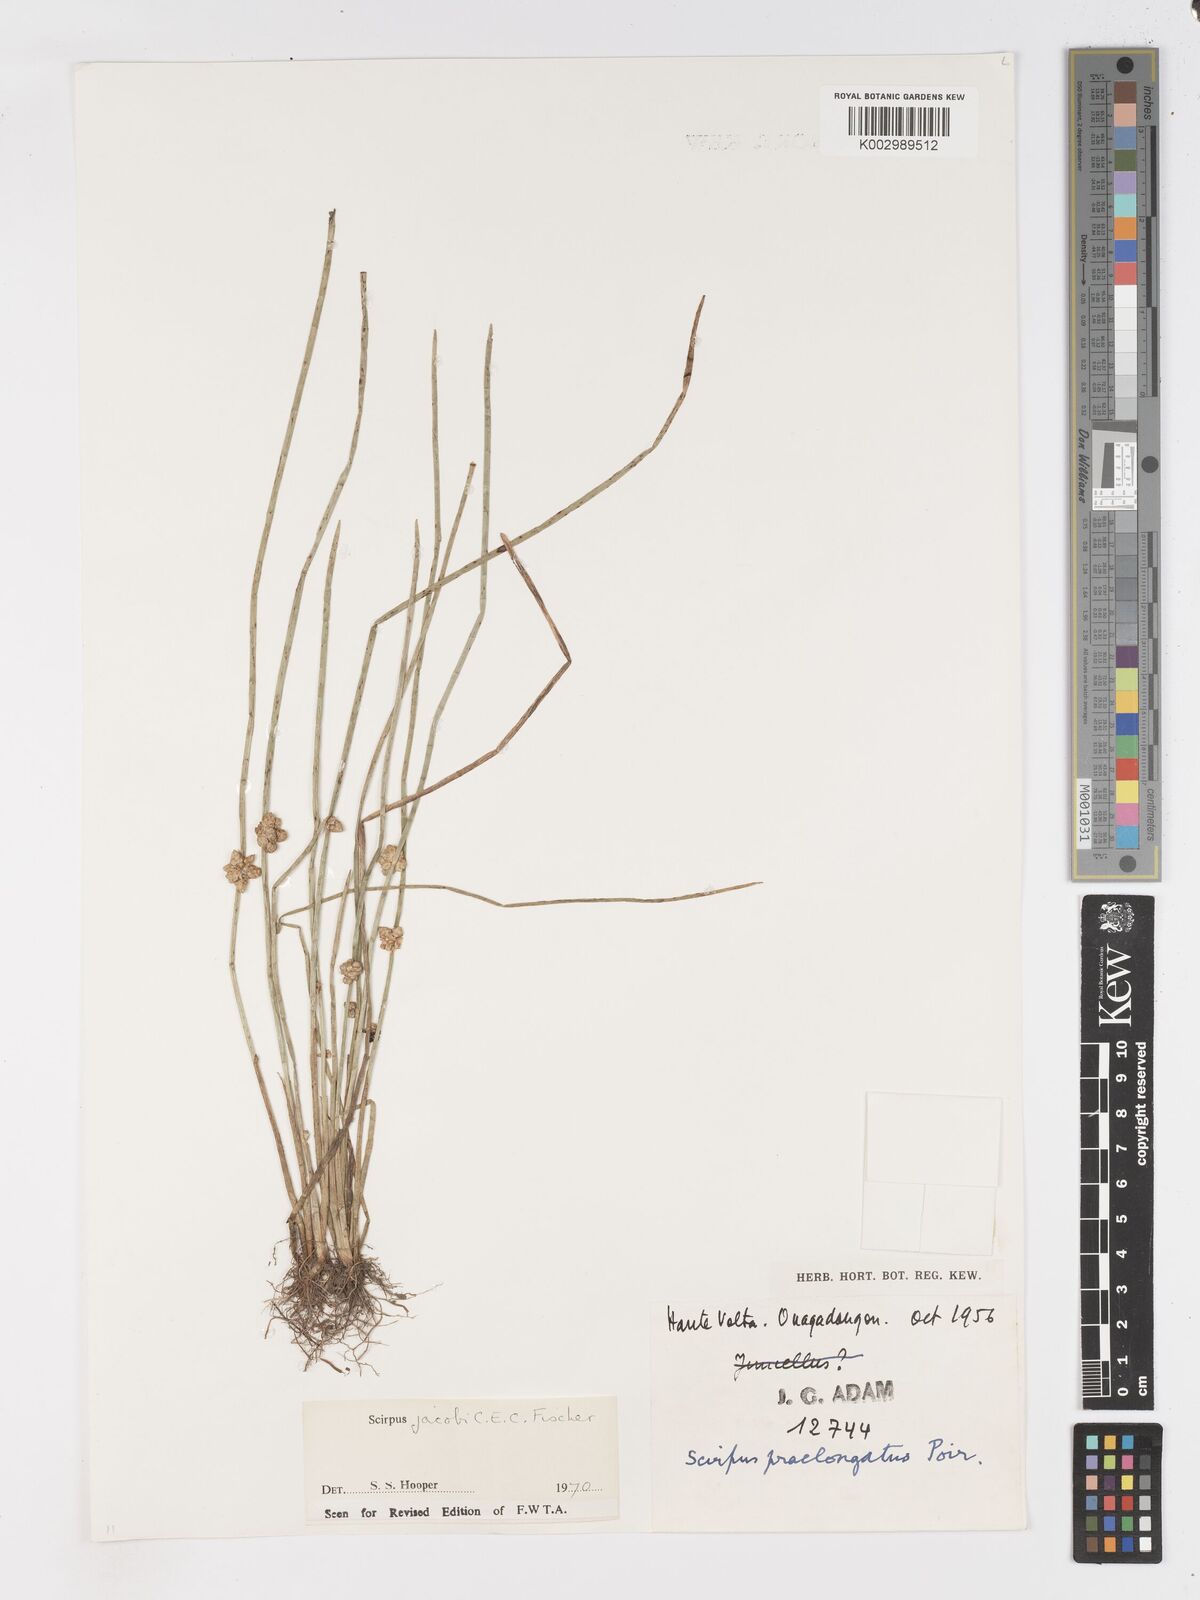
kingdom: Plantae
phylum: Tracheophyta
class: Liliopsida
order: Poales
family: Cyperaceae
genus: Schoenoplectiella
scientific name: Schoenoplectiella senegalensis
